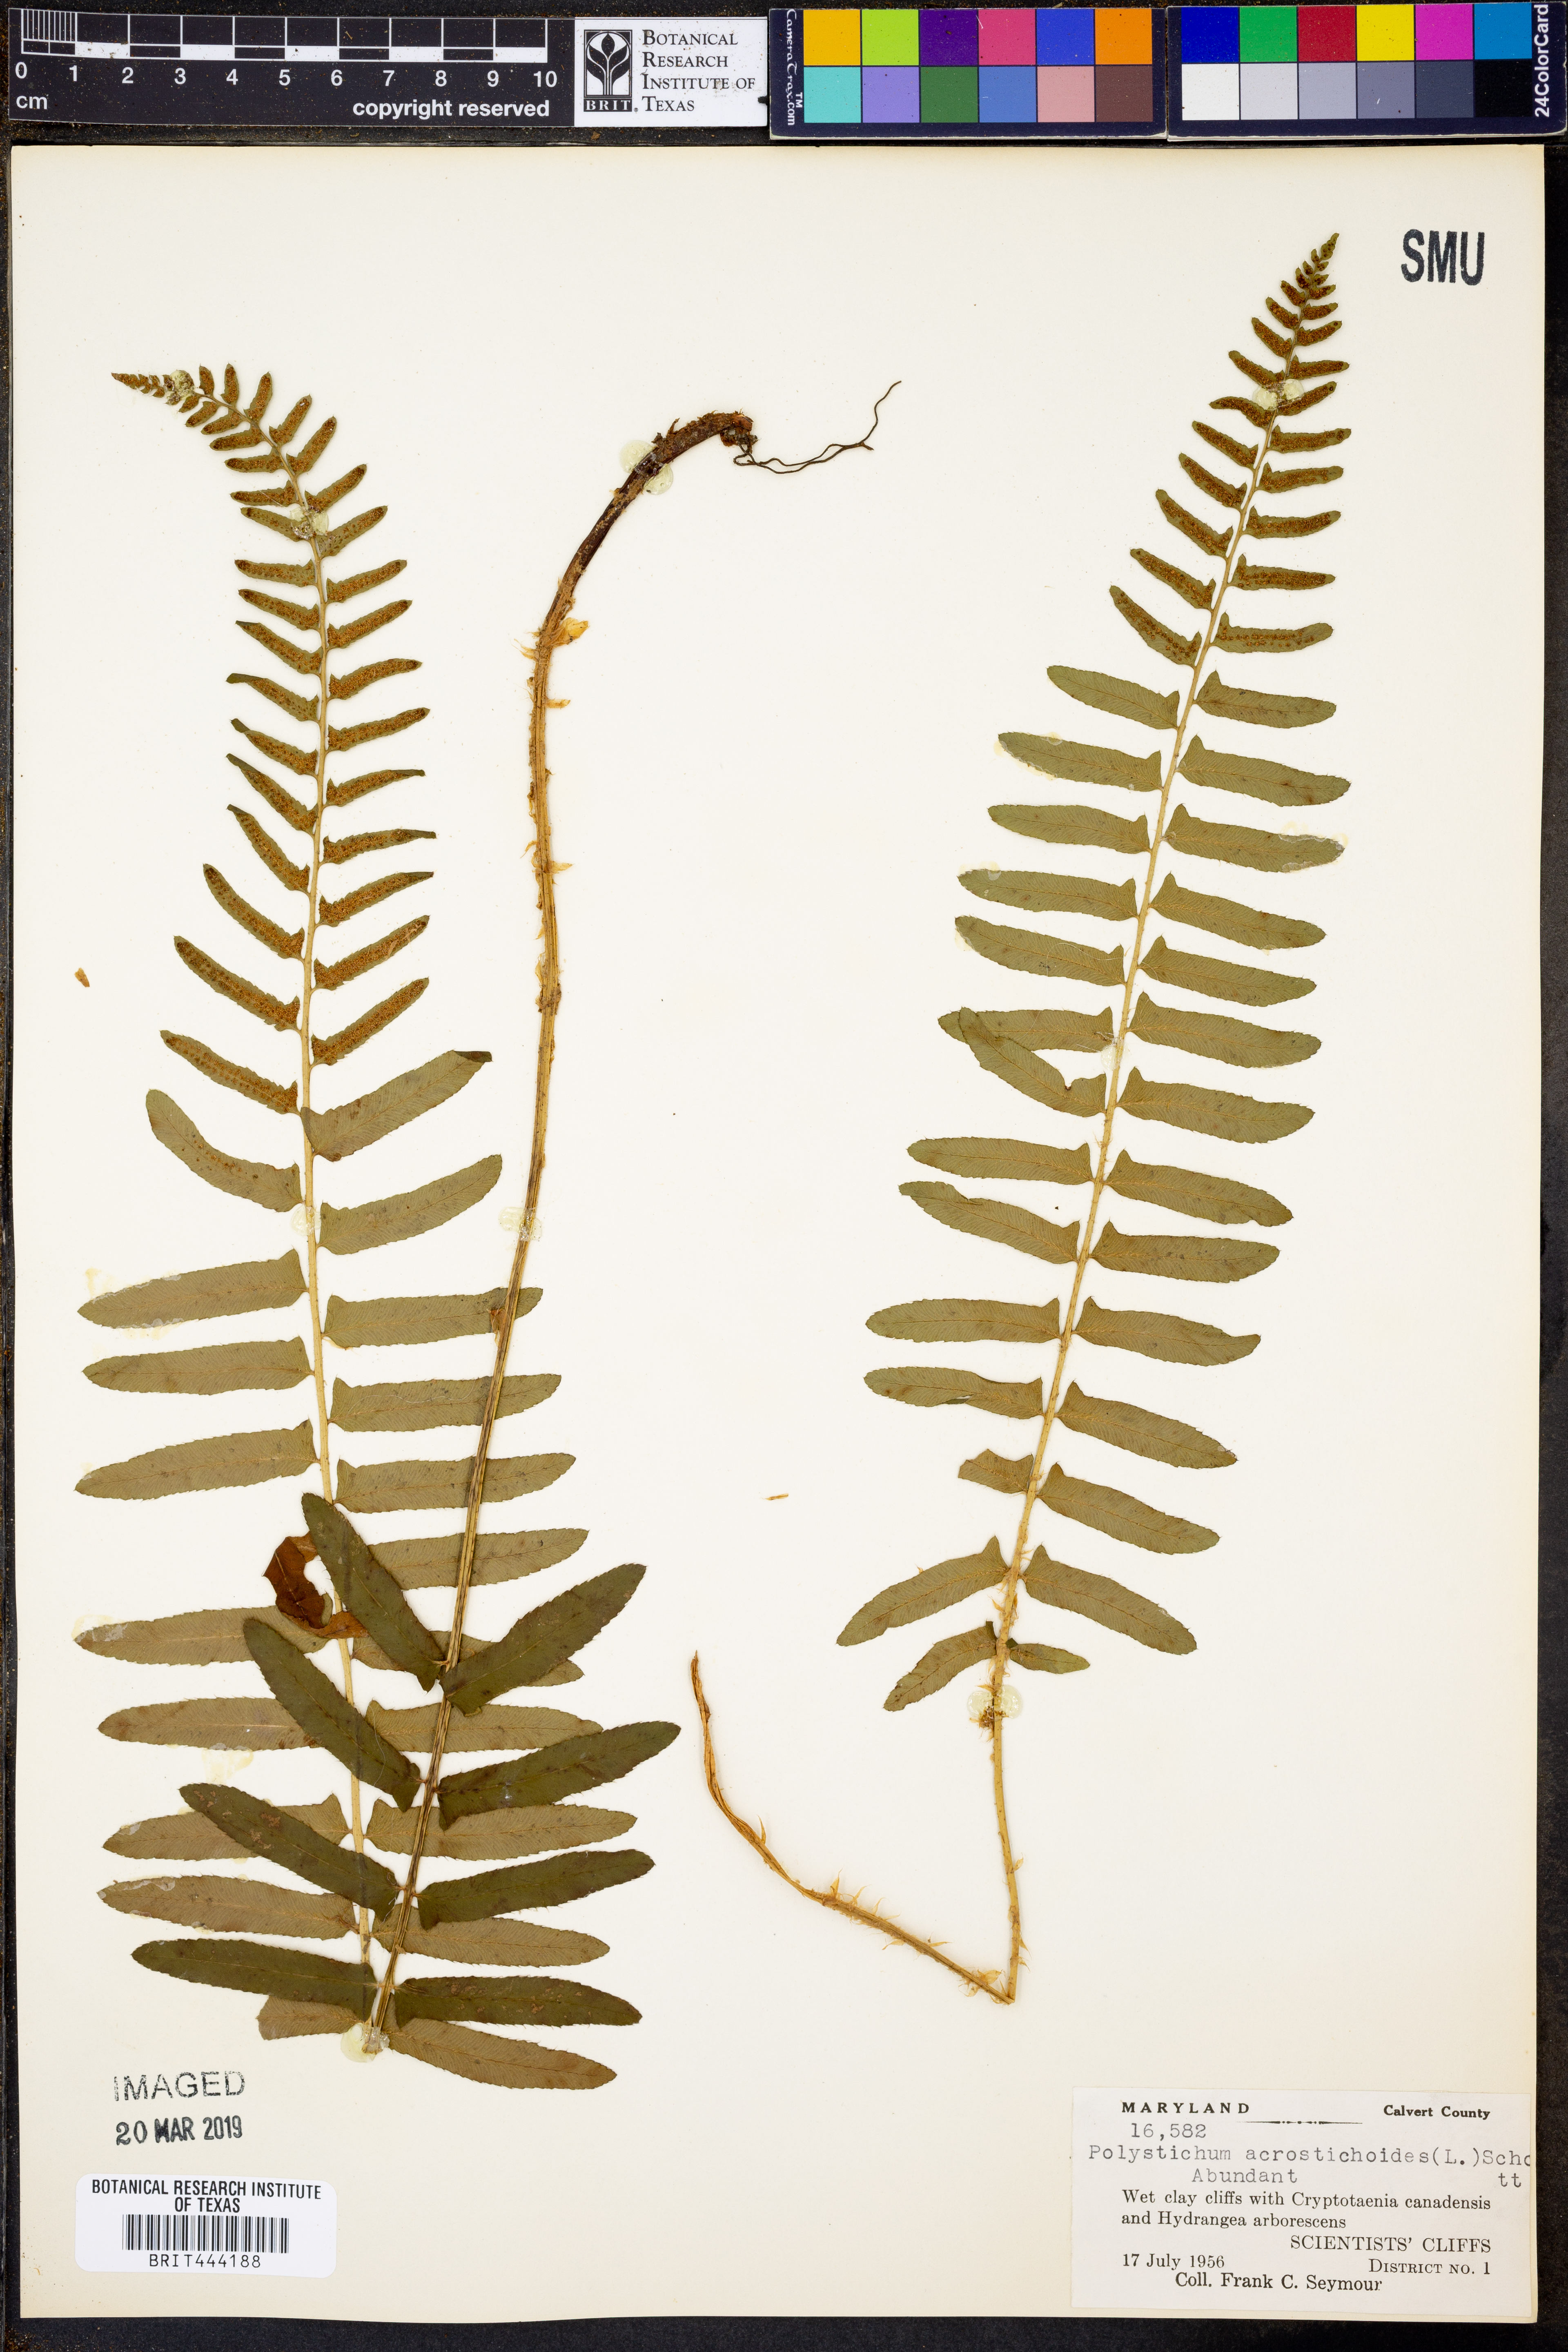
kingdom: Plantae
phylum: Tracheophyta
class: Polypodiopsida
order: Polypodiales
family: Dryopteridaceae
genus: Polystichum
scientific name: Polystichum acrostichoides
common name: Christmas fern
